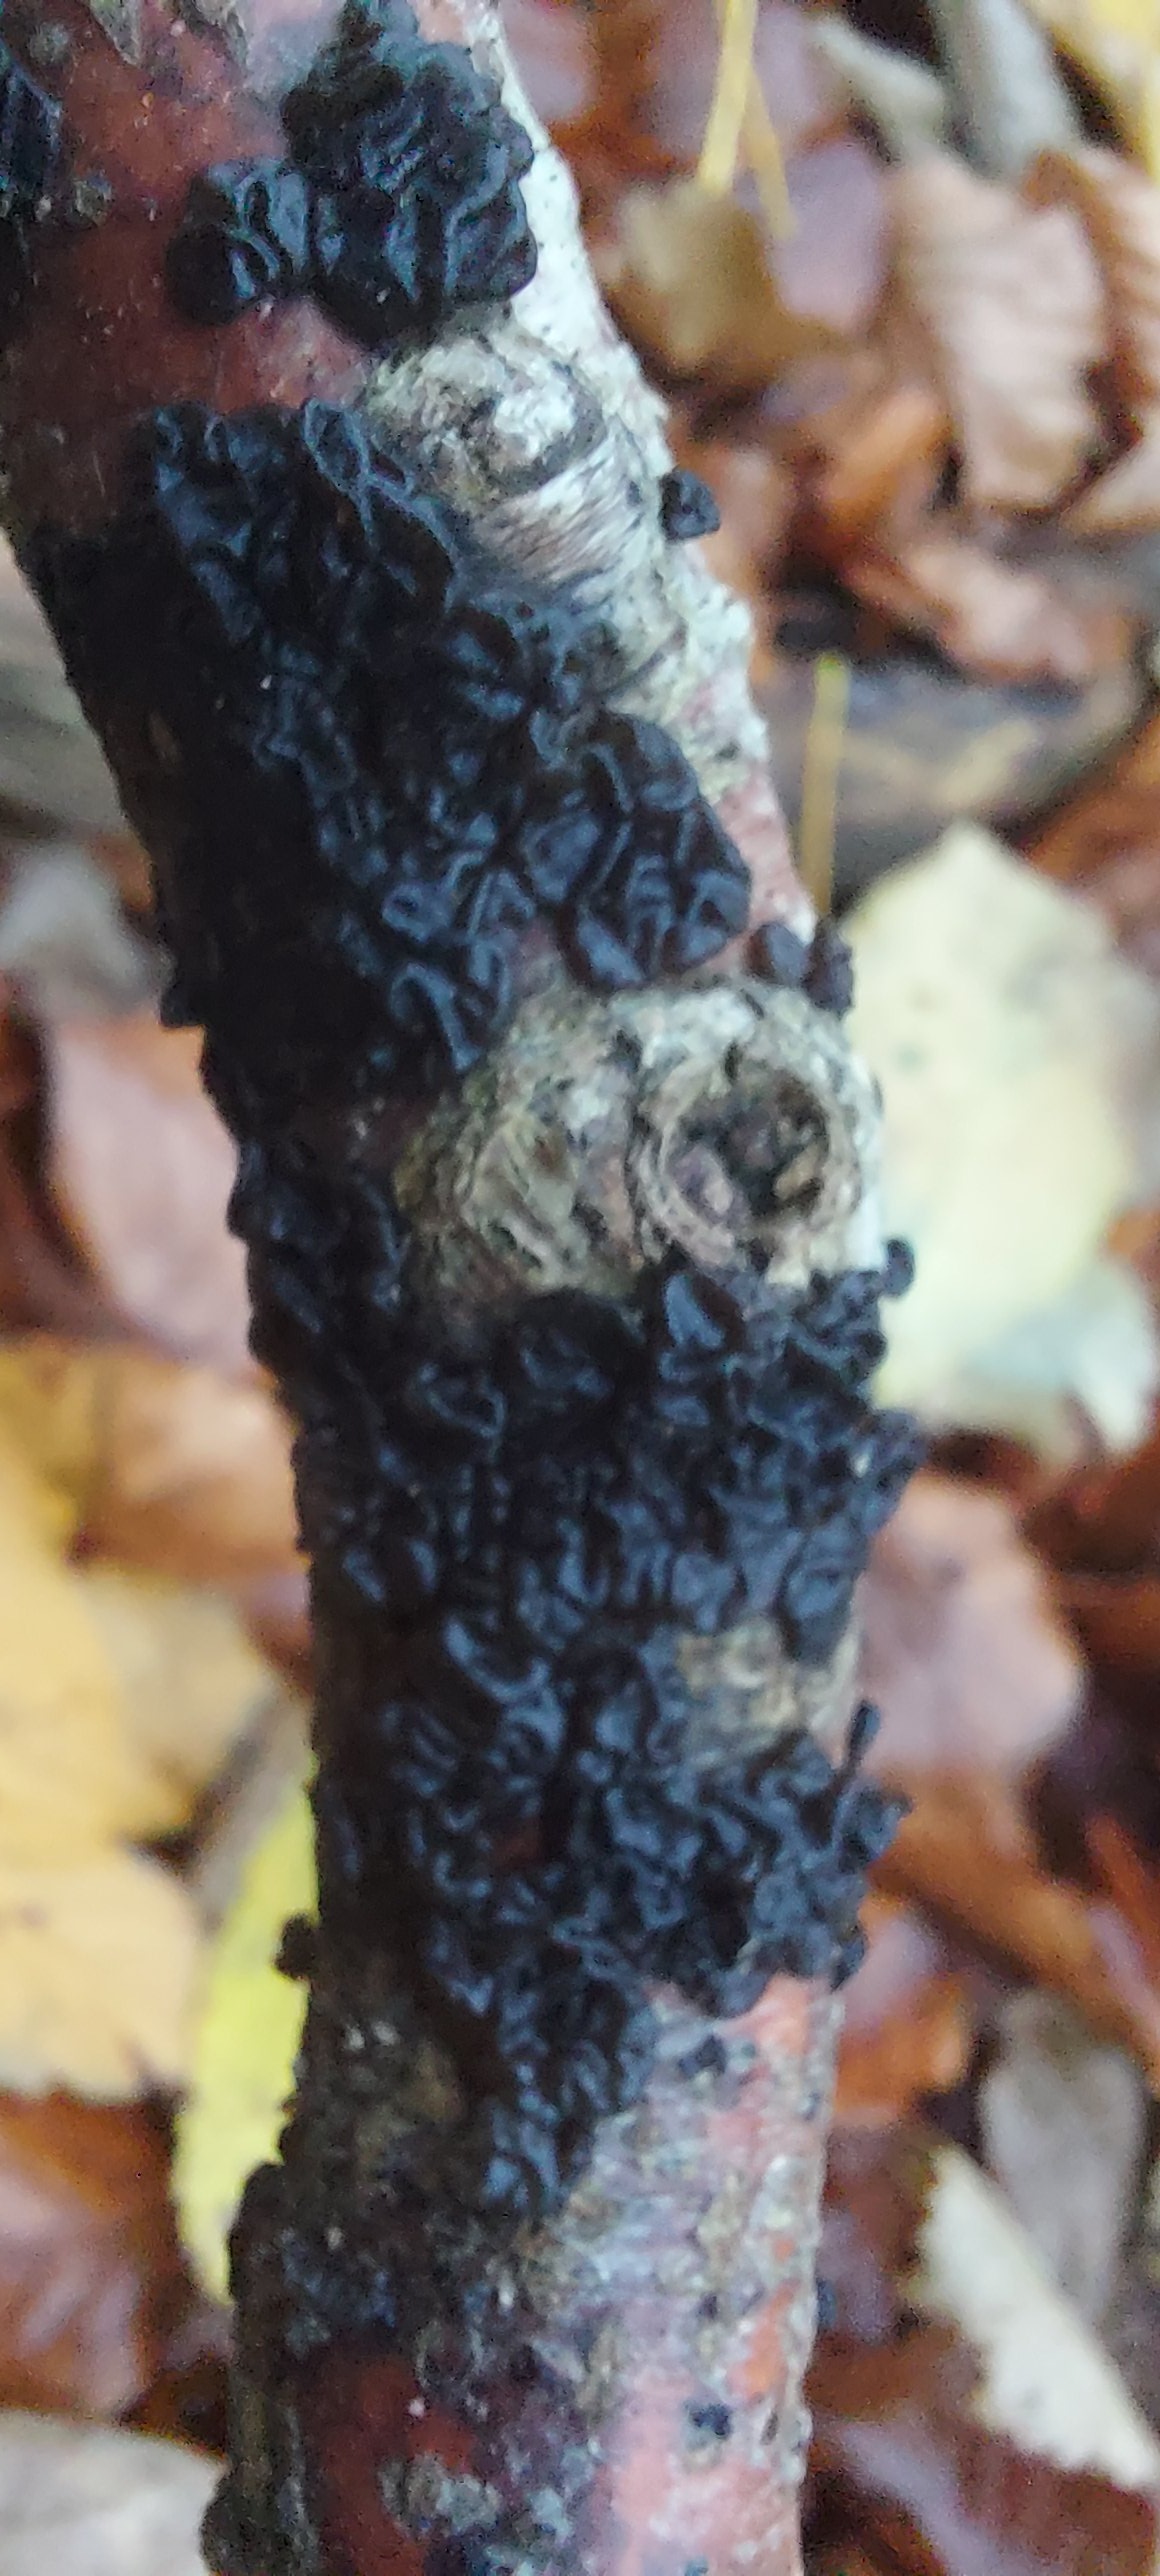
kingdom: Fungi
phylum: Basidiomycota
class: Agaricomycetes
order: Auriculariales
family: Auriculariaceae
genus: Exidia
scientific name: Exidia nigricans
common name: almindelig bævretop
